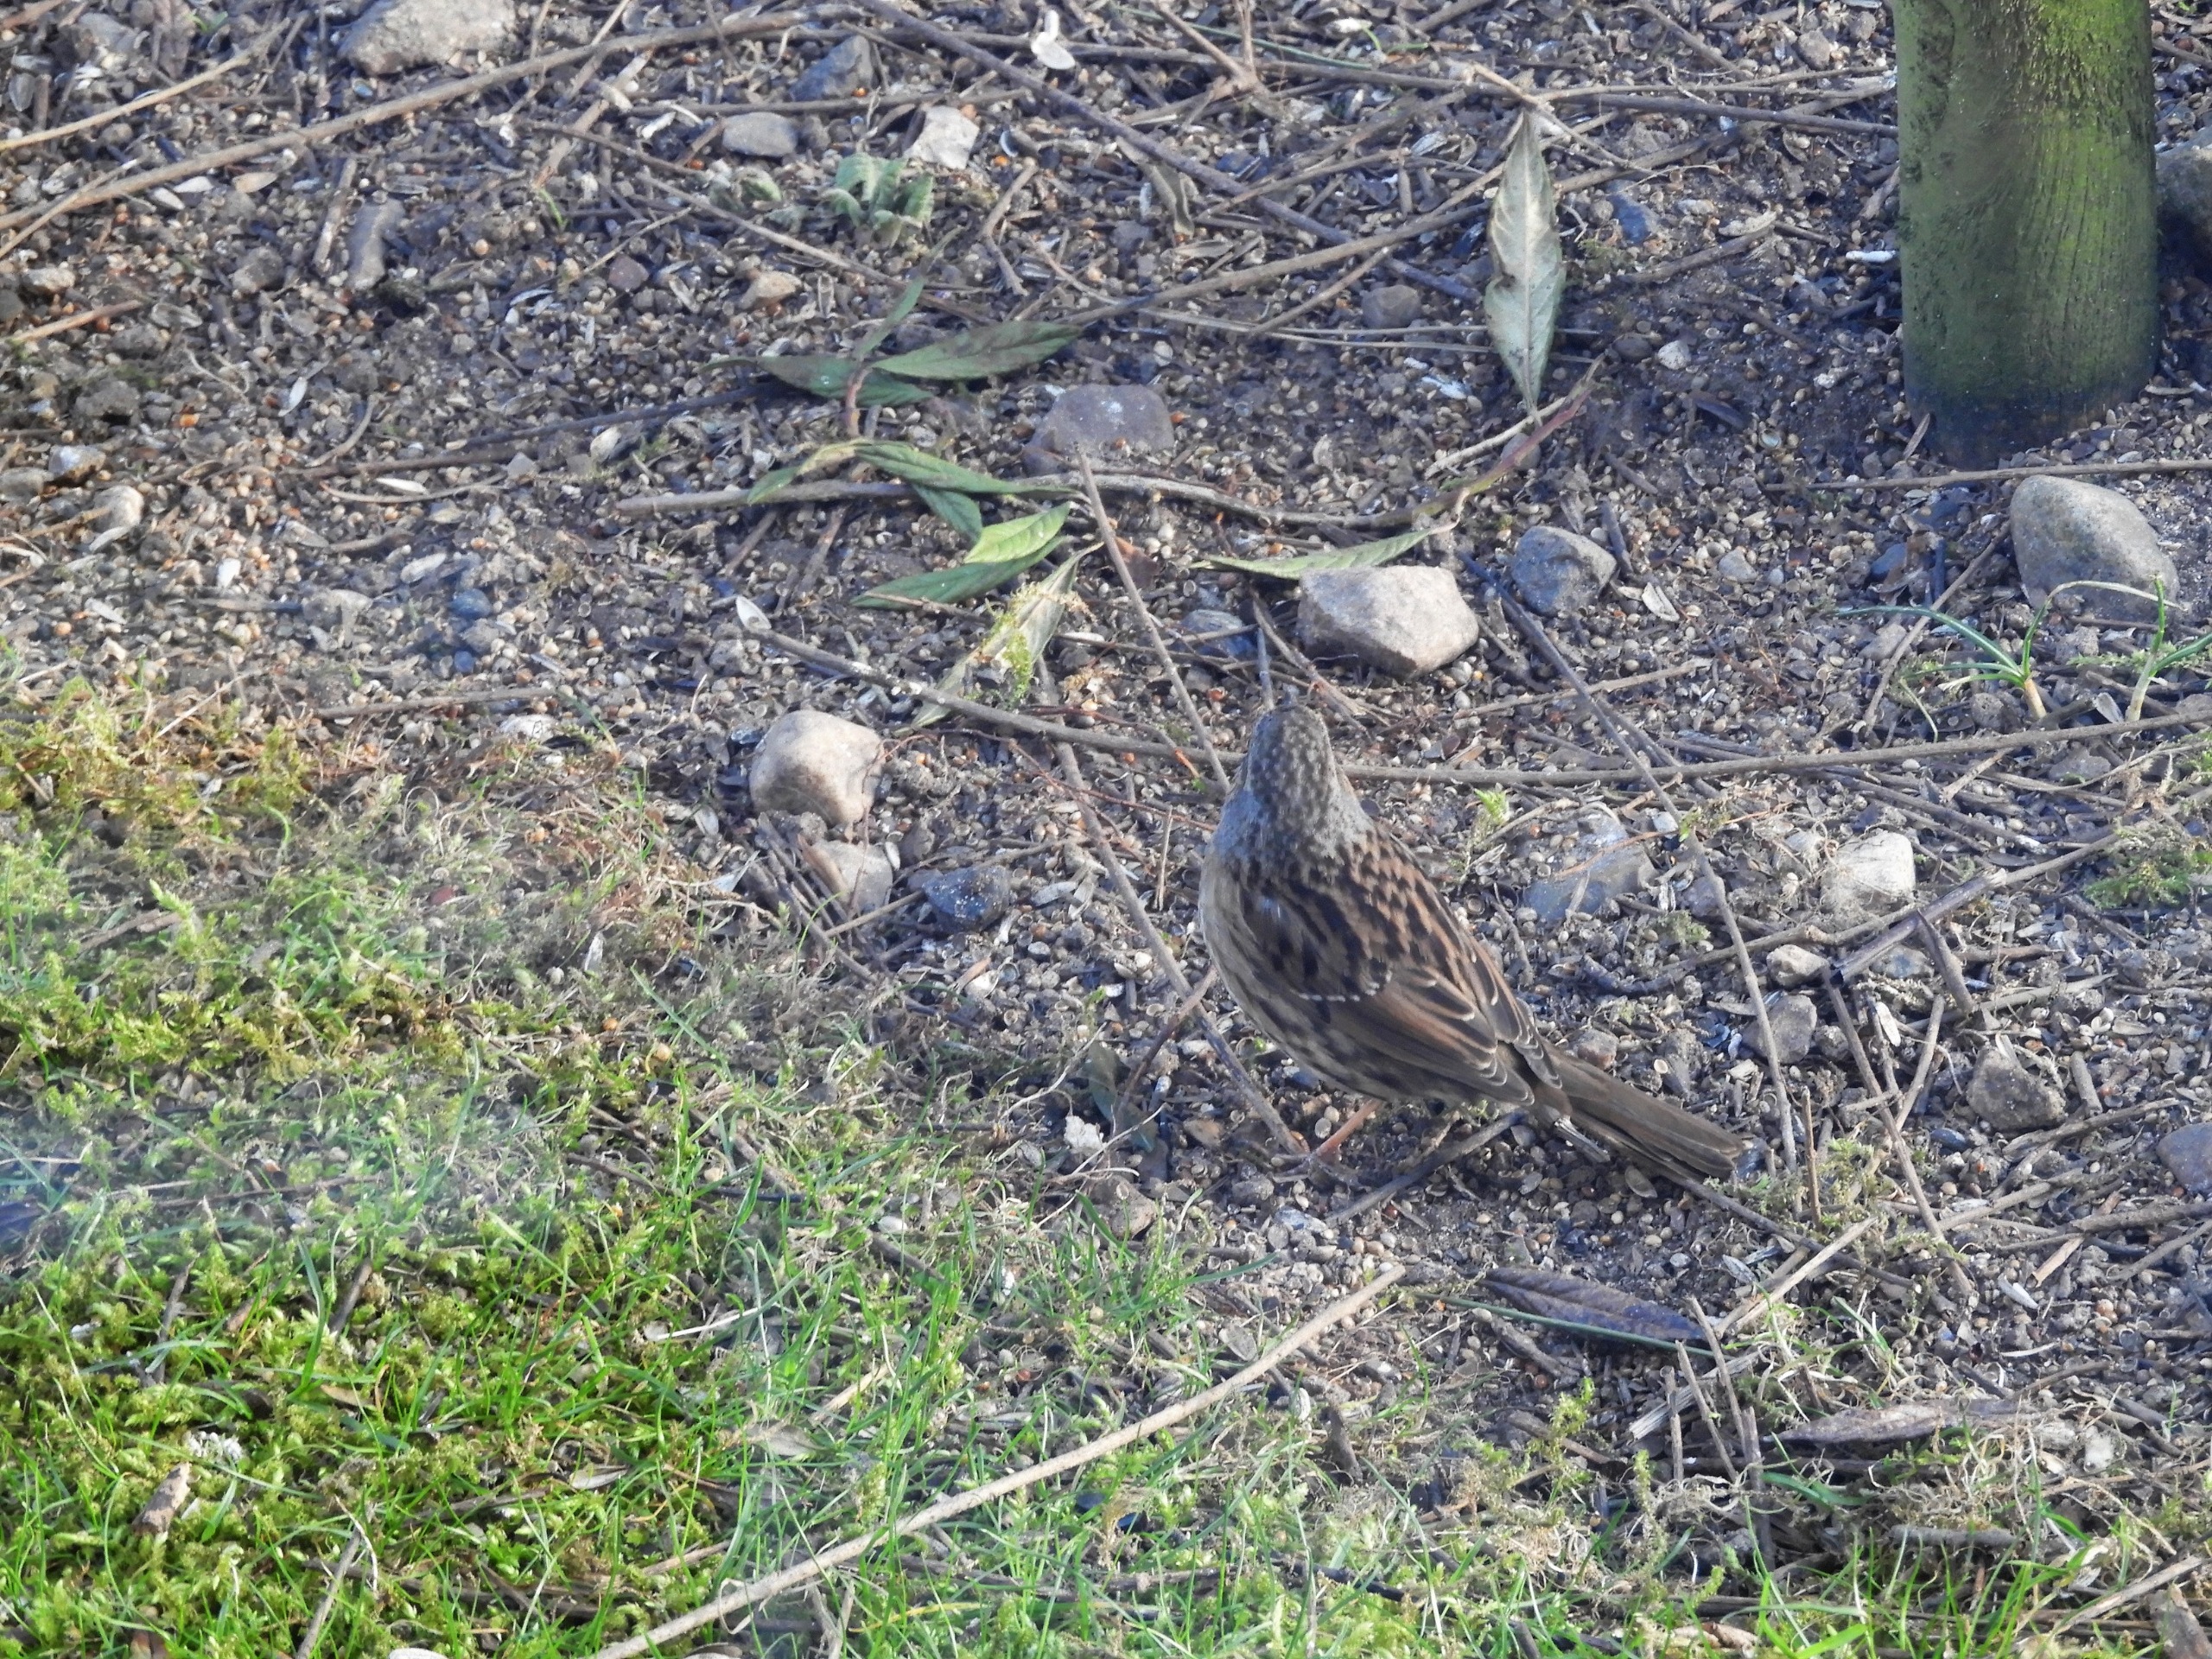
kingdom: Animalia
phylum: Chordata
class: Aves
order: Passeriformes
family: Prunellidae
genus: Prunella
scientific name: Prunella modularis
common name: Jernspurv
